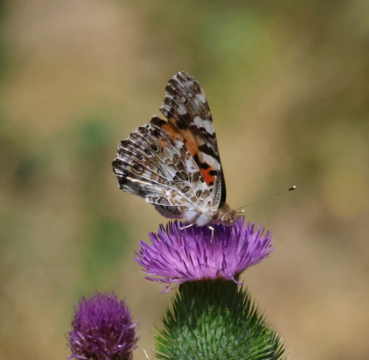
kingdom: Animalia
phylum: Arthropoda
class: Insecta
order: Lepidoptera
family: Nymphalidae
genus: Vanessa
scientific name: Vanessa cardui
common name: Painted Lady
